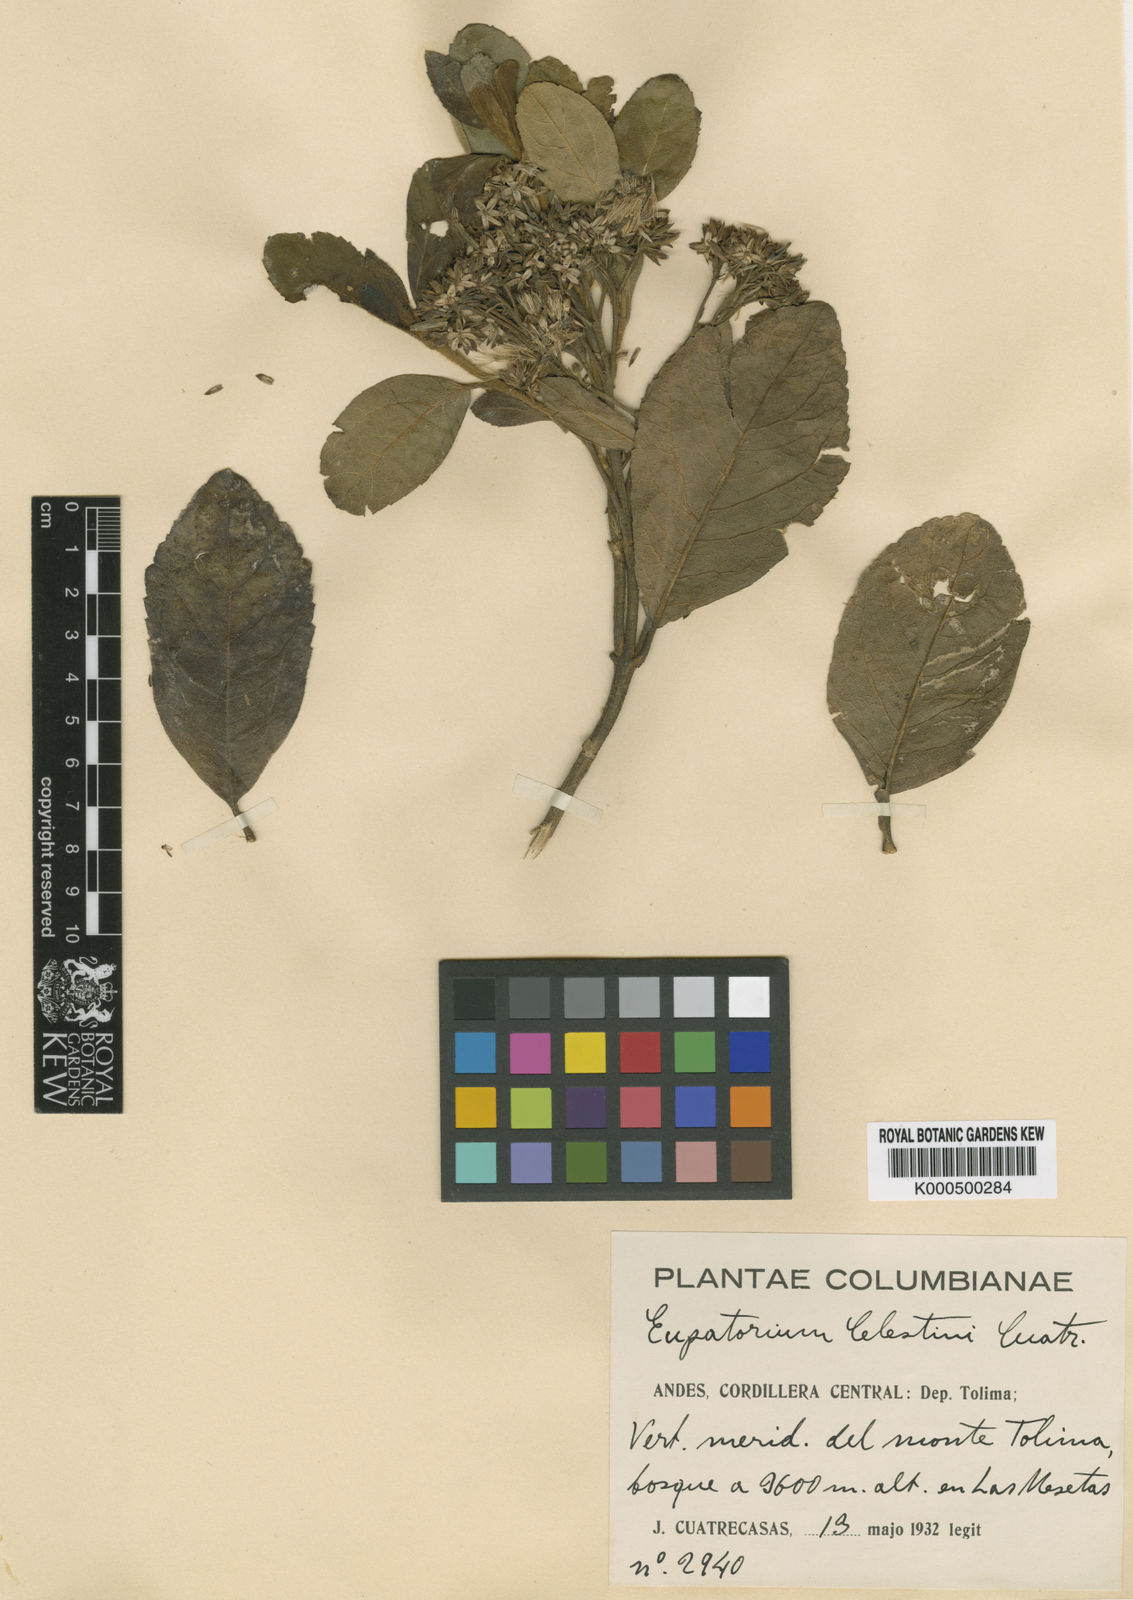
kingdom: Plantae
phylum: Tracheophyta
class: Magnoliopsida
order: Asterales
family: Asteraceae
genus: Ageratina
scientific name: Ageratina celestini
